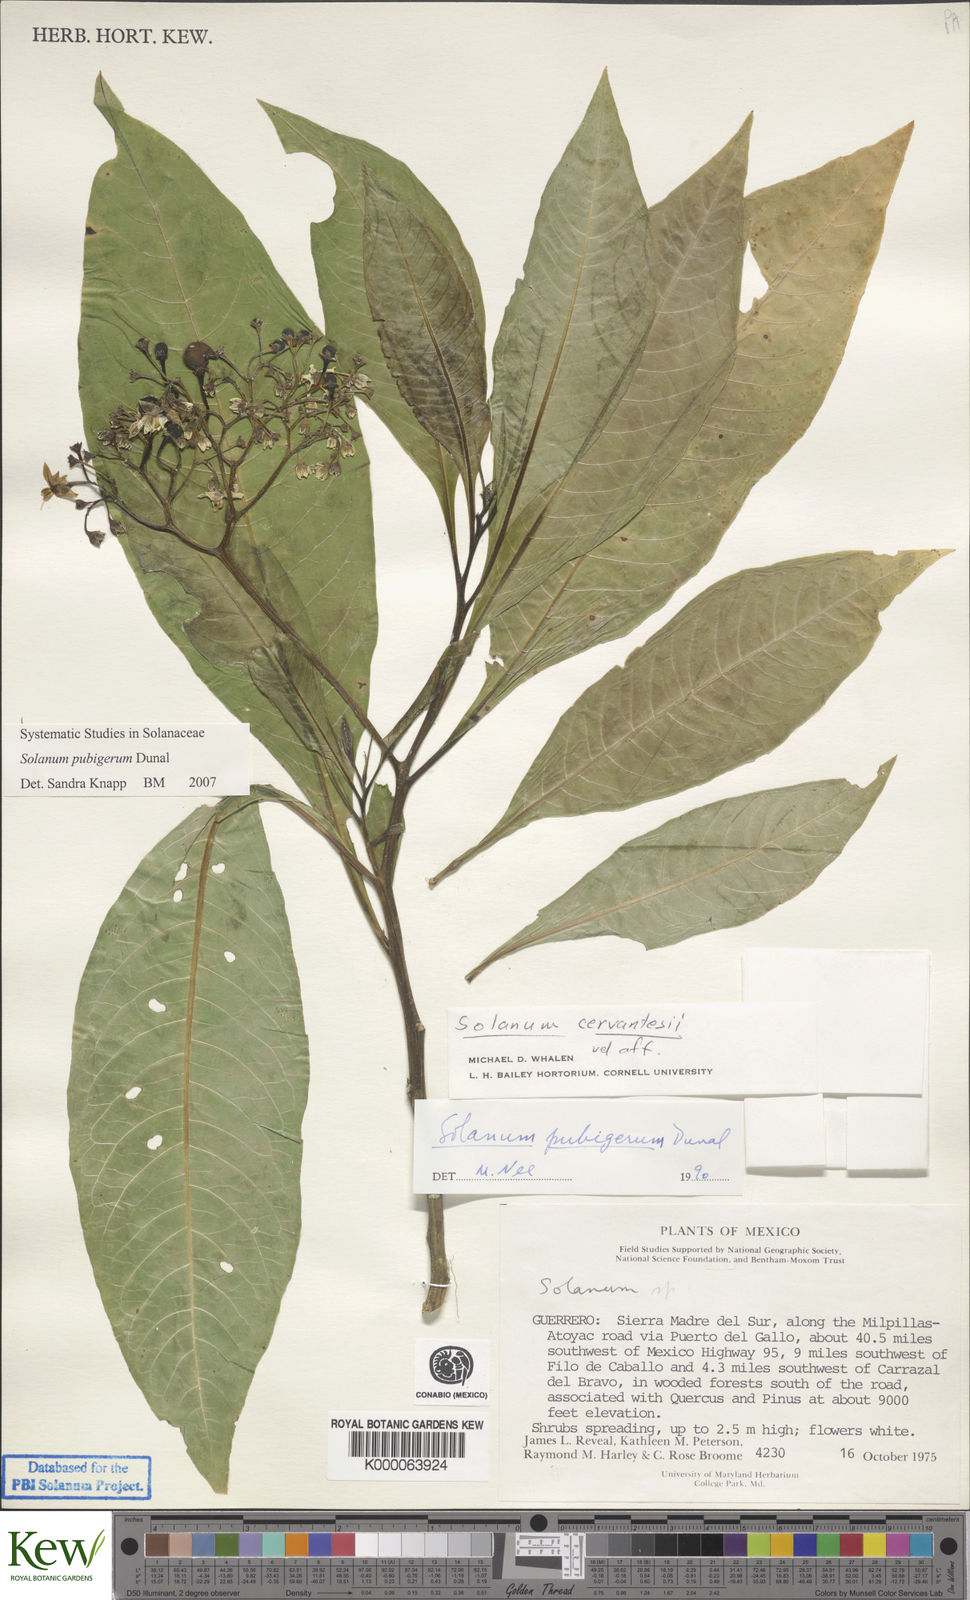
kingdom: Plantae
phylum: Tracheophyta
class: Magnoliopsida
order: Solanales
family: Solanaceae
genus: Solanum
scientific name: Solanum pubigerum
